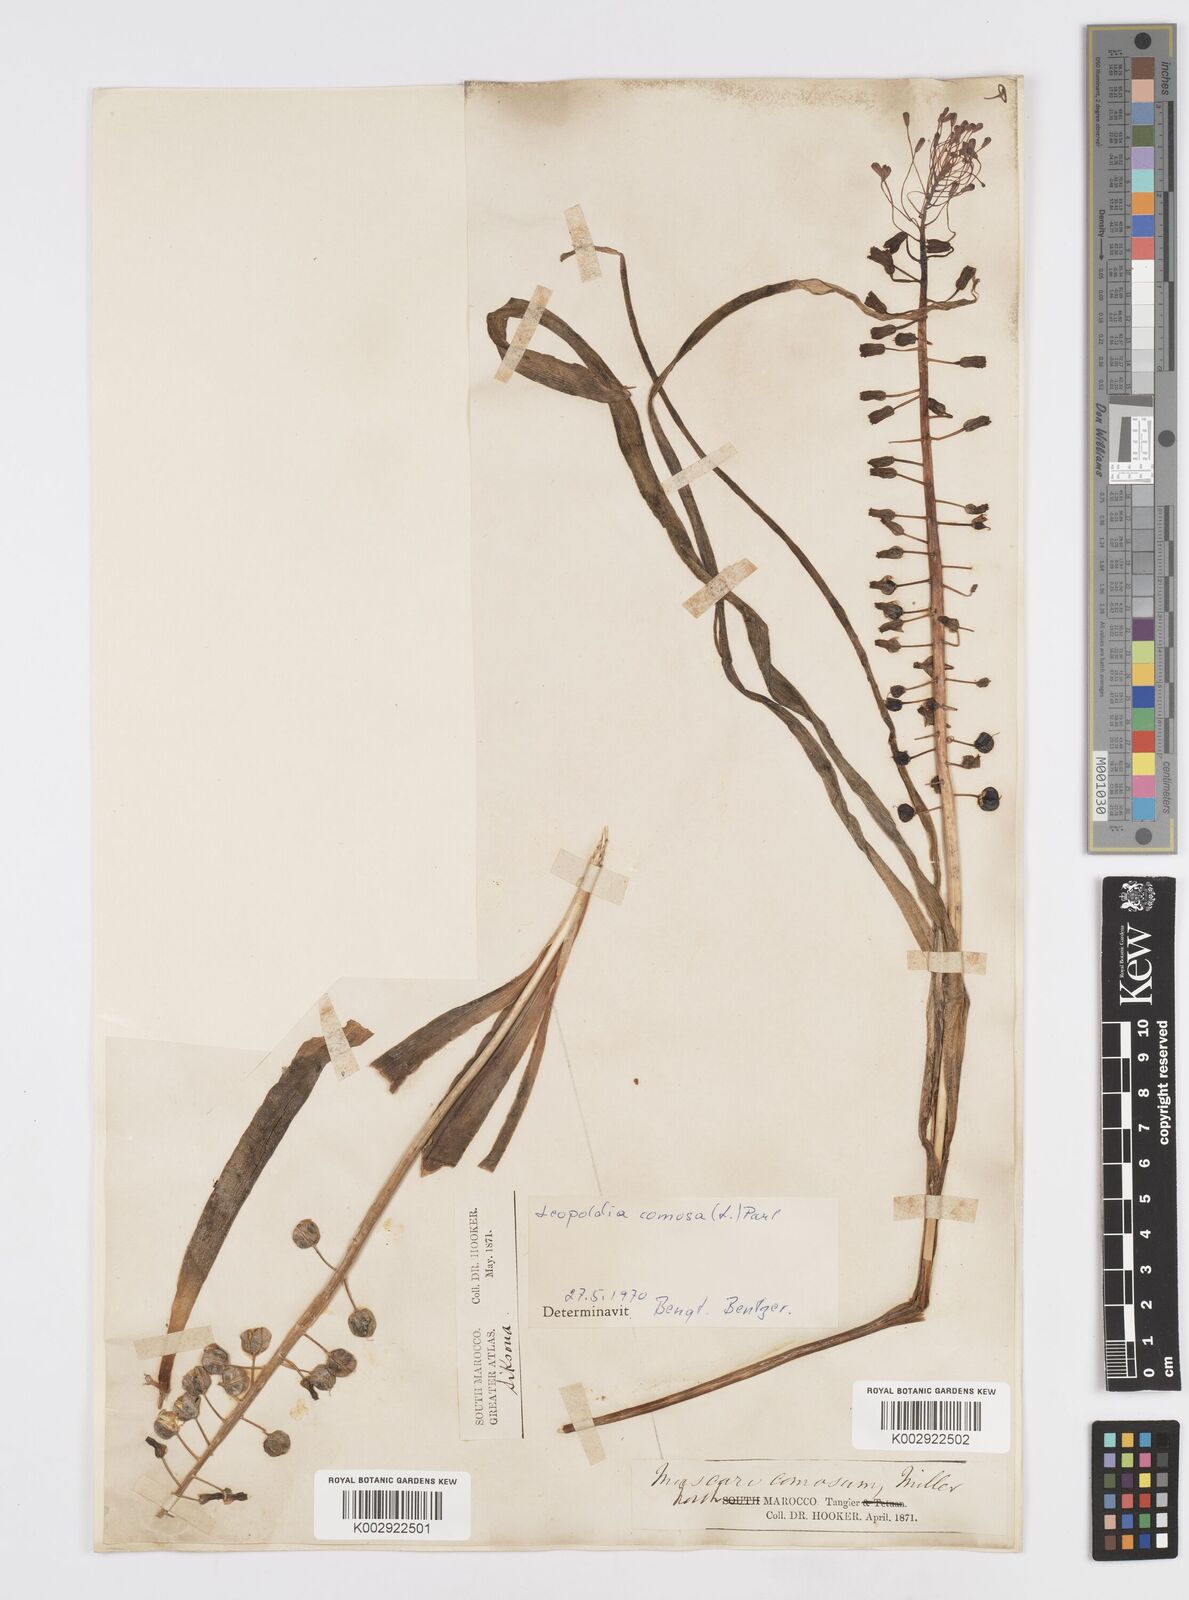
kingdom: Plantae
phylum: Tracheophyta
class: Liliopsida
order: Asparagales
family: Asparagaceae
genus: Muscari
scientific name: Muscari comosum
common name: Tassel hyacinth
